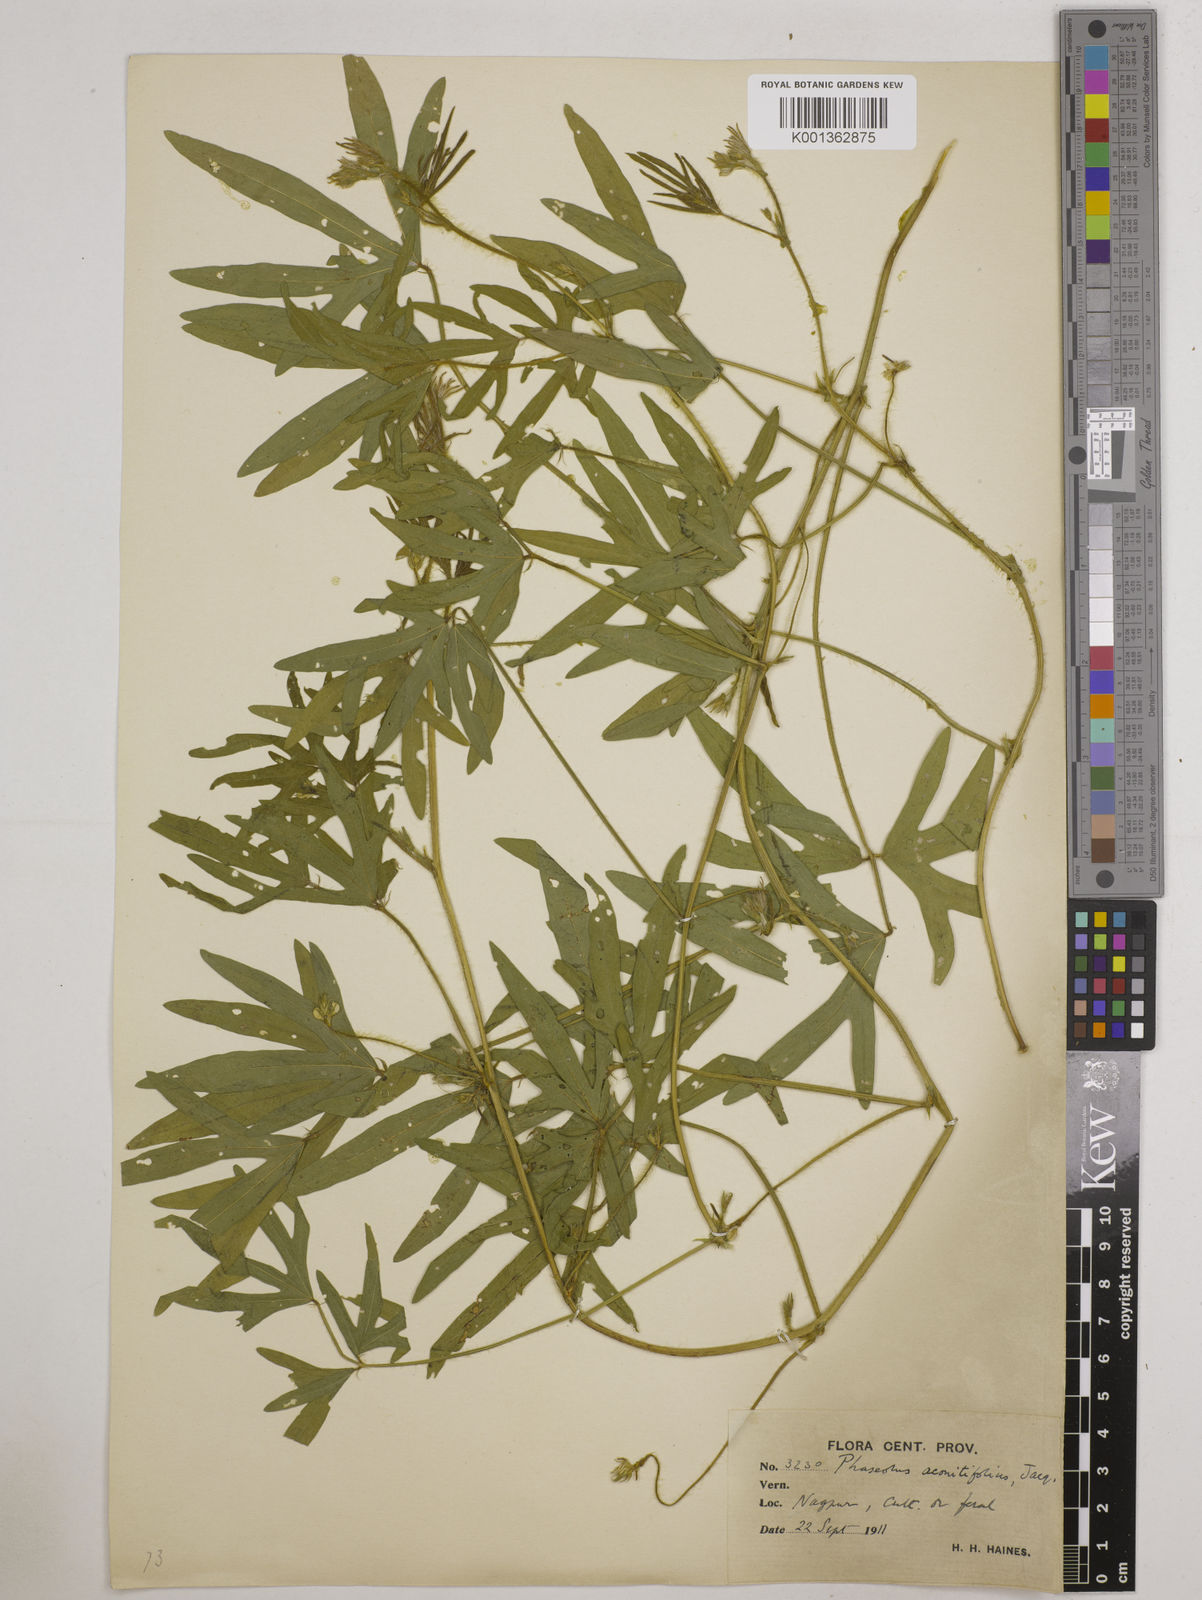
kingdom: Plantae
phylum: Tracheophyta
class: Magnoliopsida
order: Fabales
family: Fabaceae
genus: Vigna
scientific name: Vigna aconitifolia
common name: Dew bean
